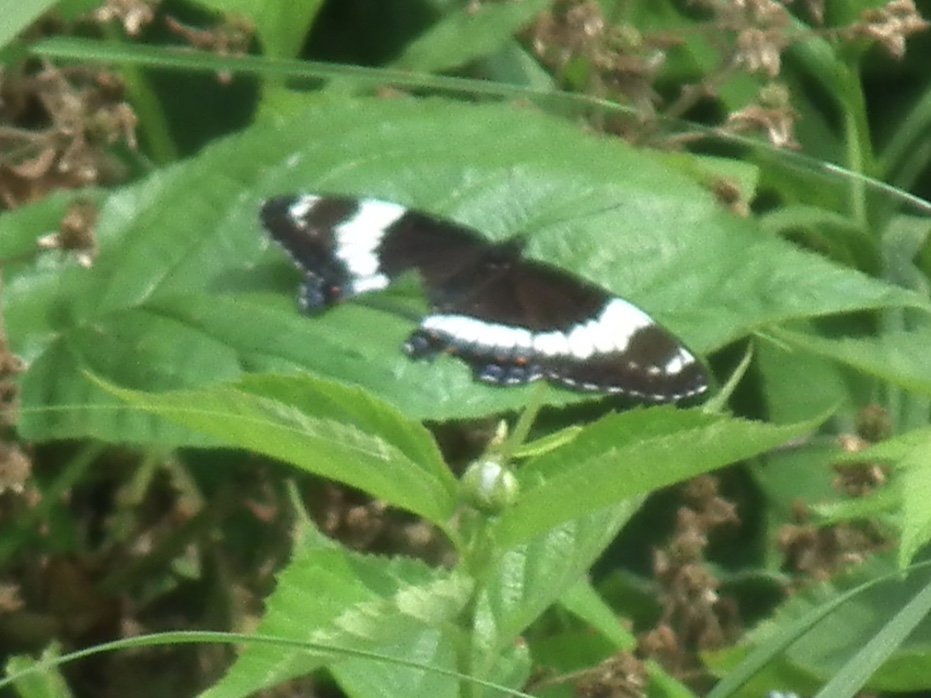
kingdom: Animalia
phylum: Arthropoda
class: Insecta
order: Lepidoptera
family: Nymphalidae
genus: Limenitis
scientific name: Limenitis arthemis
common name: Red-spotted Admiral
